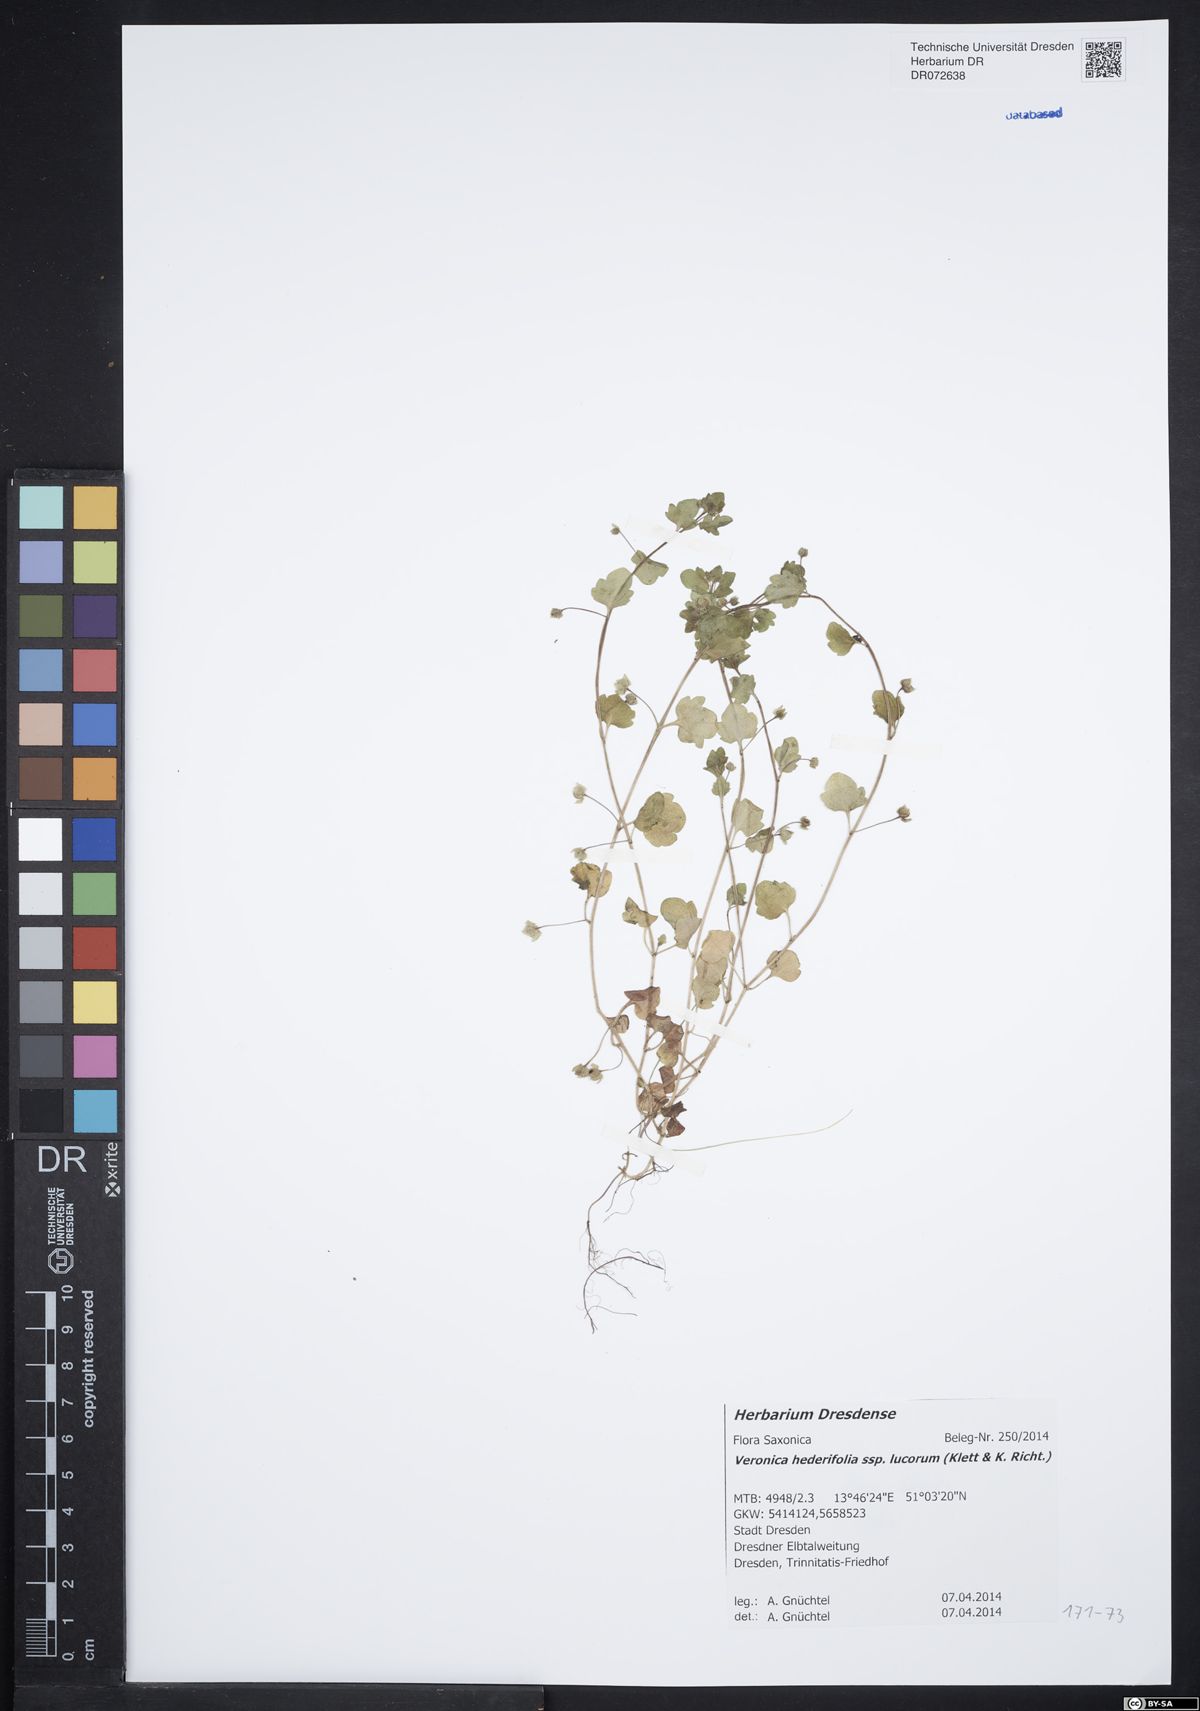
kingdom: Plantae
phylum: Tracheophyta
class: Magnoliopsida
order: Lamiales
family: Plantaginaceae
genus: Veronica
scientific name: Veronica hederifolia
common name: Ivy-leaved speedwell
